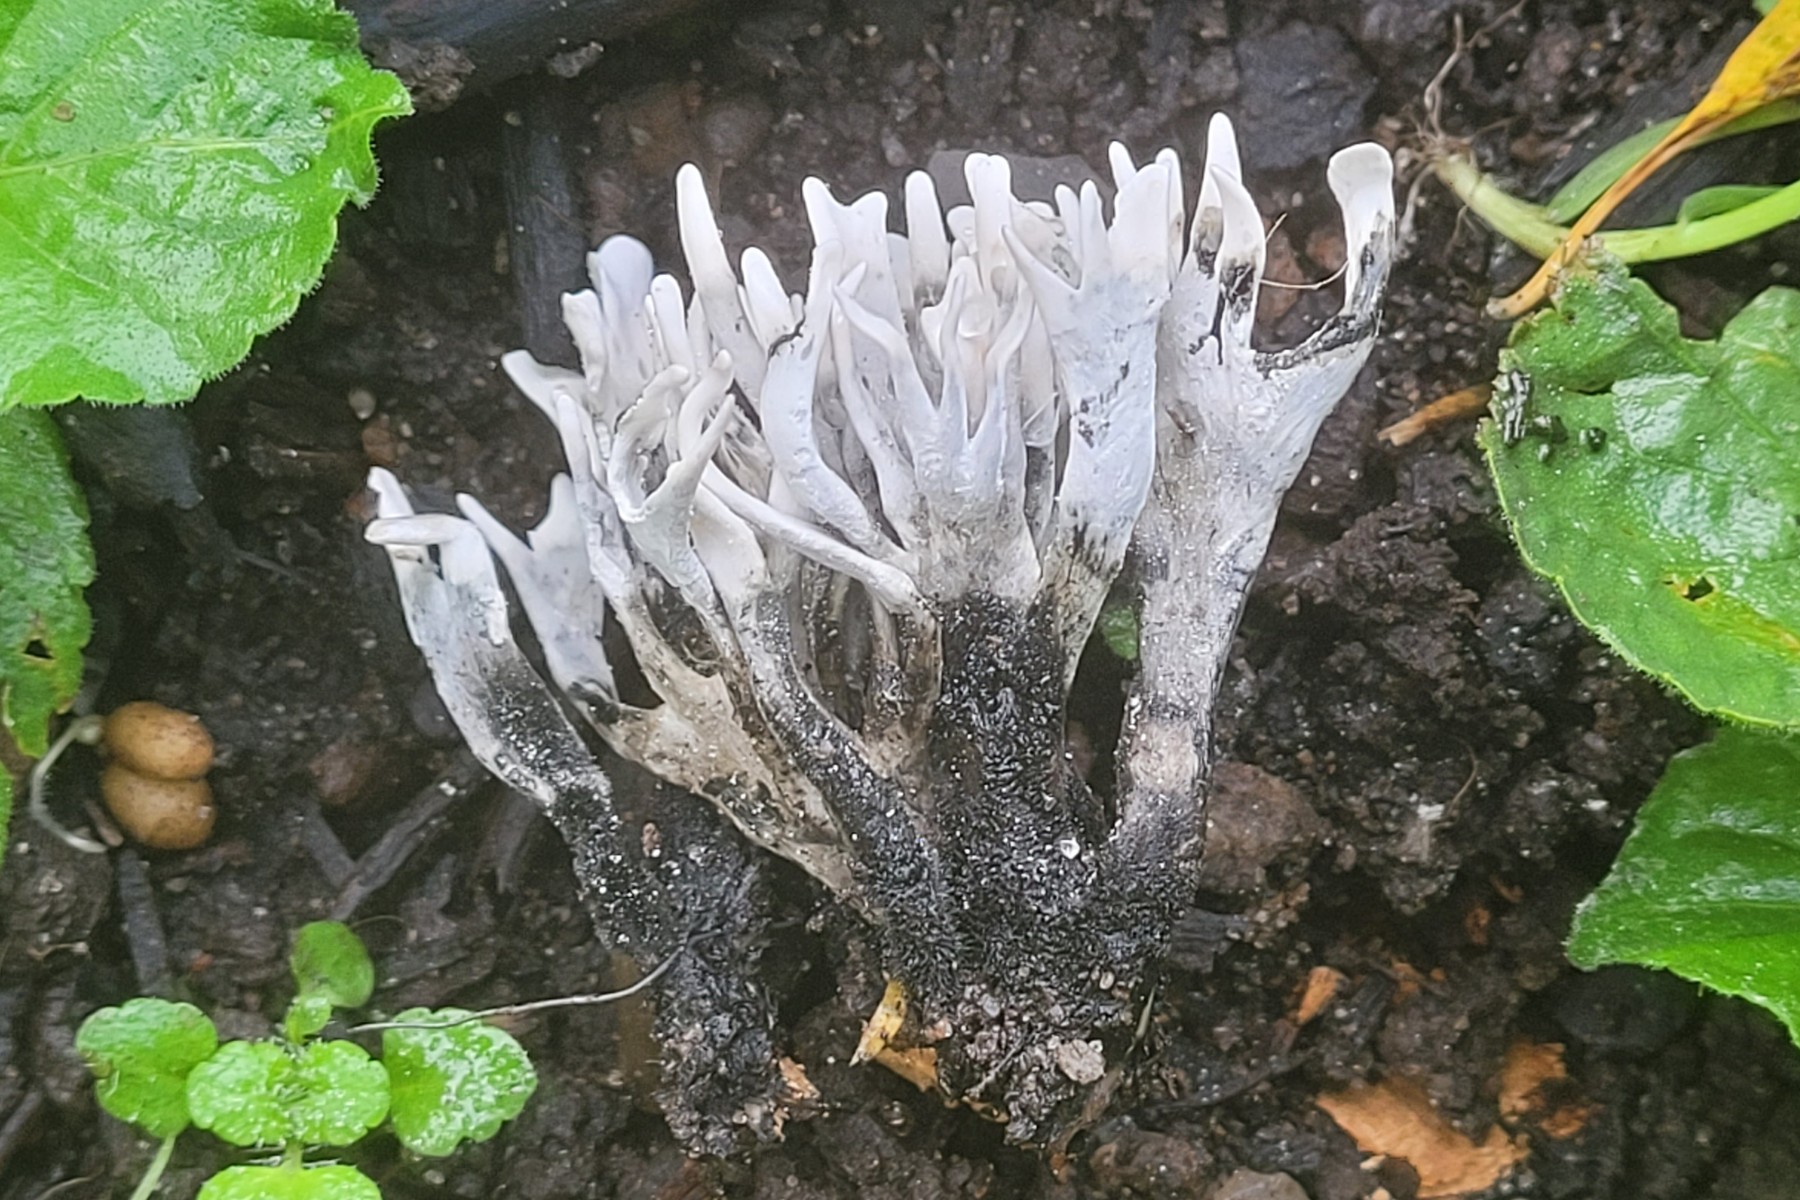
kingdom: Fungi
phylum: Ascomycota
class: Sordariomycetes
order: Xylariales
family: Xylariaceae
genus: Xylaria
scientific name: Xylaria hypoxylon
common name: grenet stødsvamp
